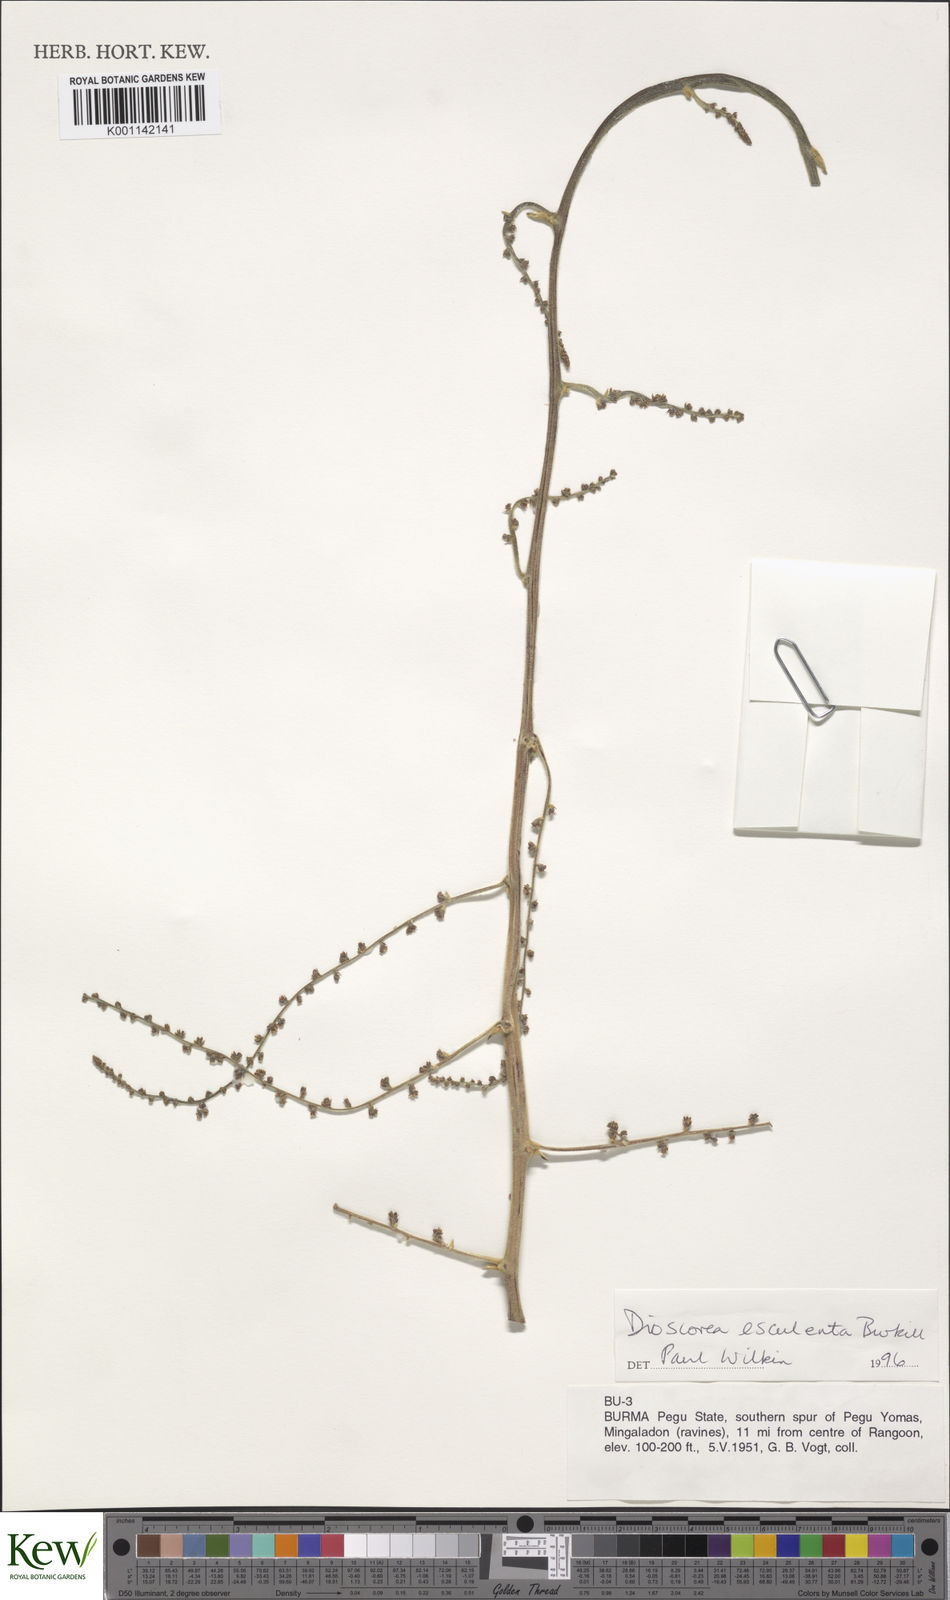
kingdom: Plantae
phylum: Tracheophyta
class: Liliopsida
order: Dioscoreales
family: Dioscoreaceae
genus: Dioscorea
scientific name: Dioscorea esculenta
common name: Chinese yam
